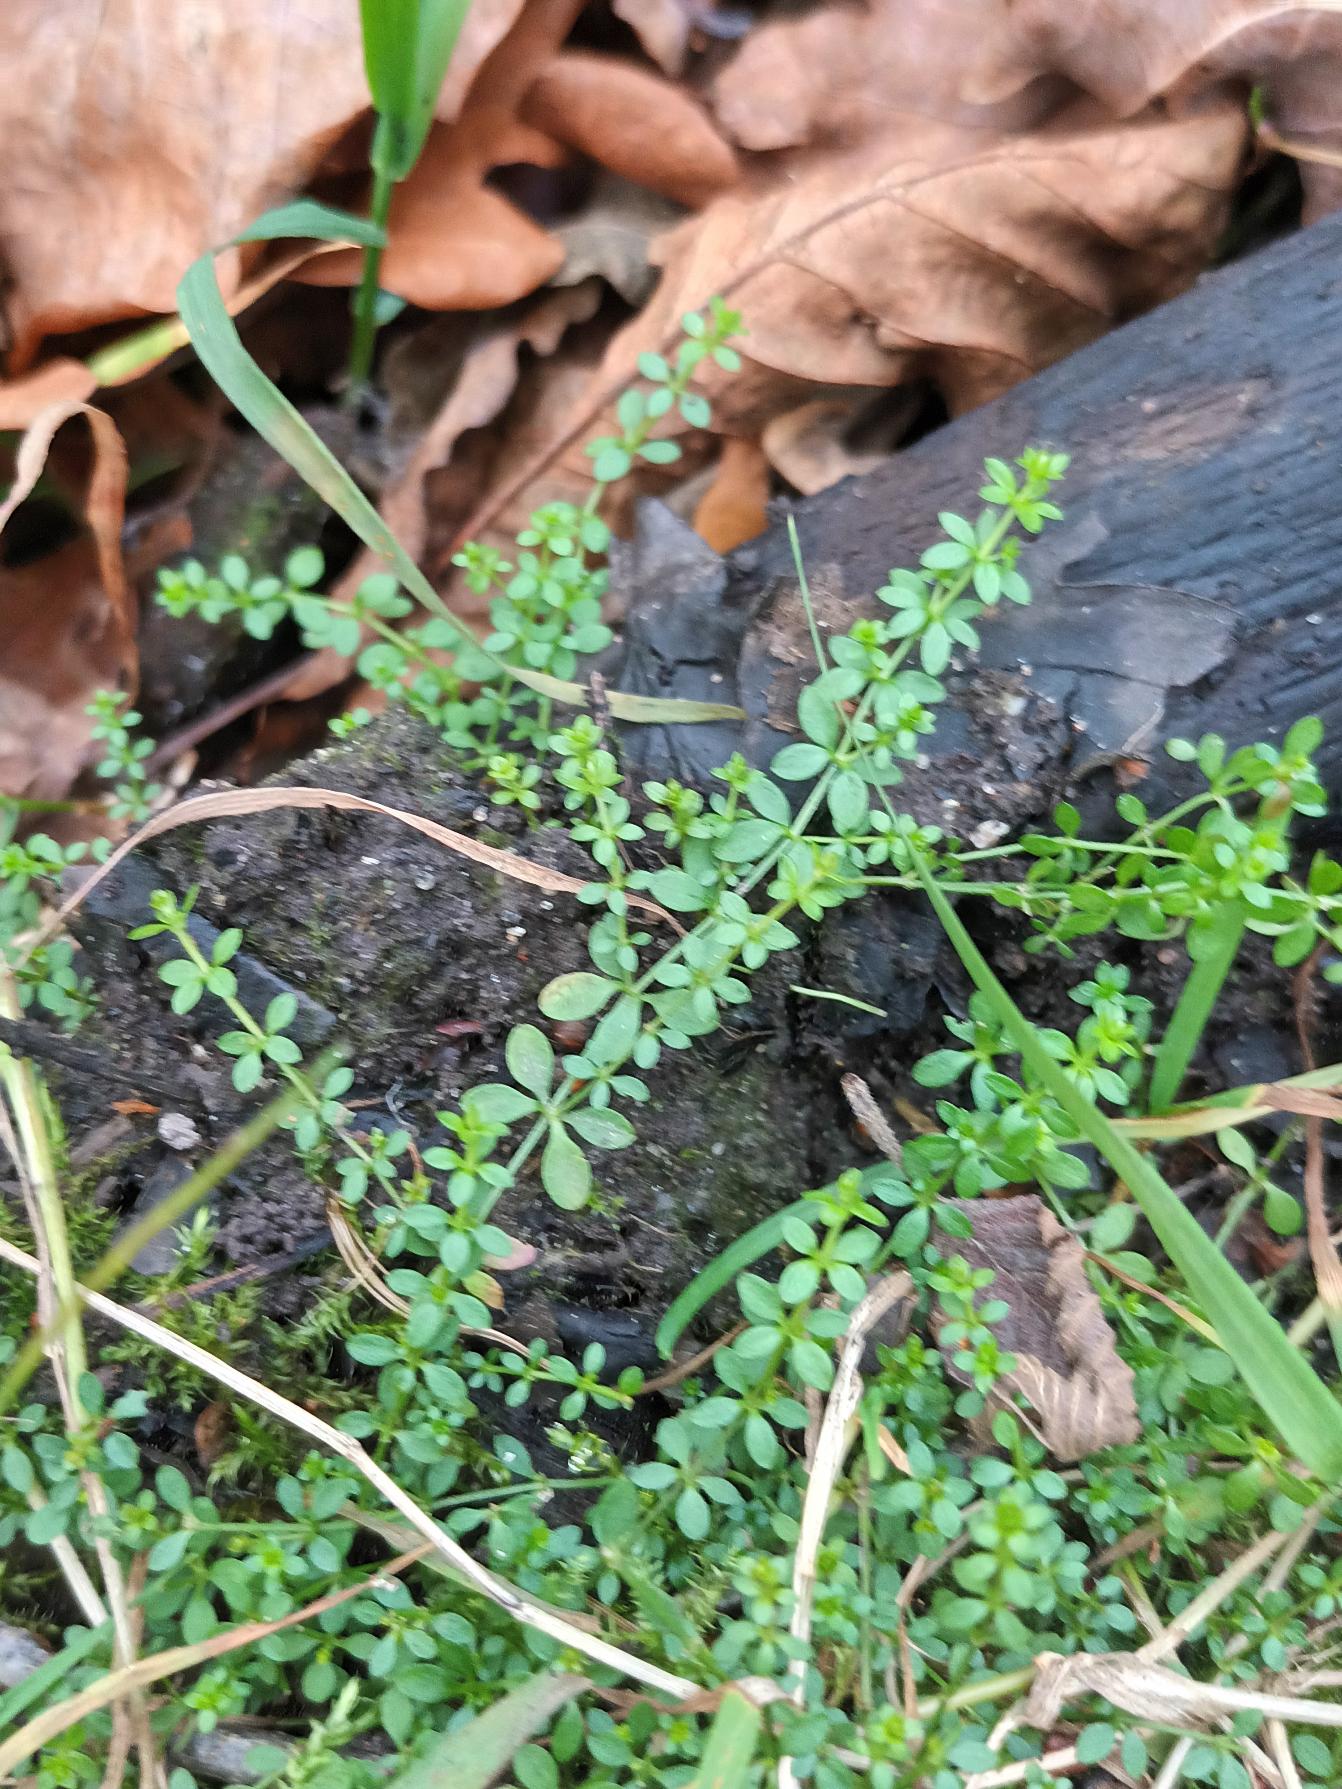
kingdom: Plantae
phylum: Tracheophyta
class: Magnoliopsida
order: Gentianales
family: Rubiaceae
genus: Galium
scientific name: Galium palustre
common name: Kær-snerre
